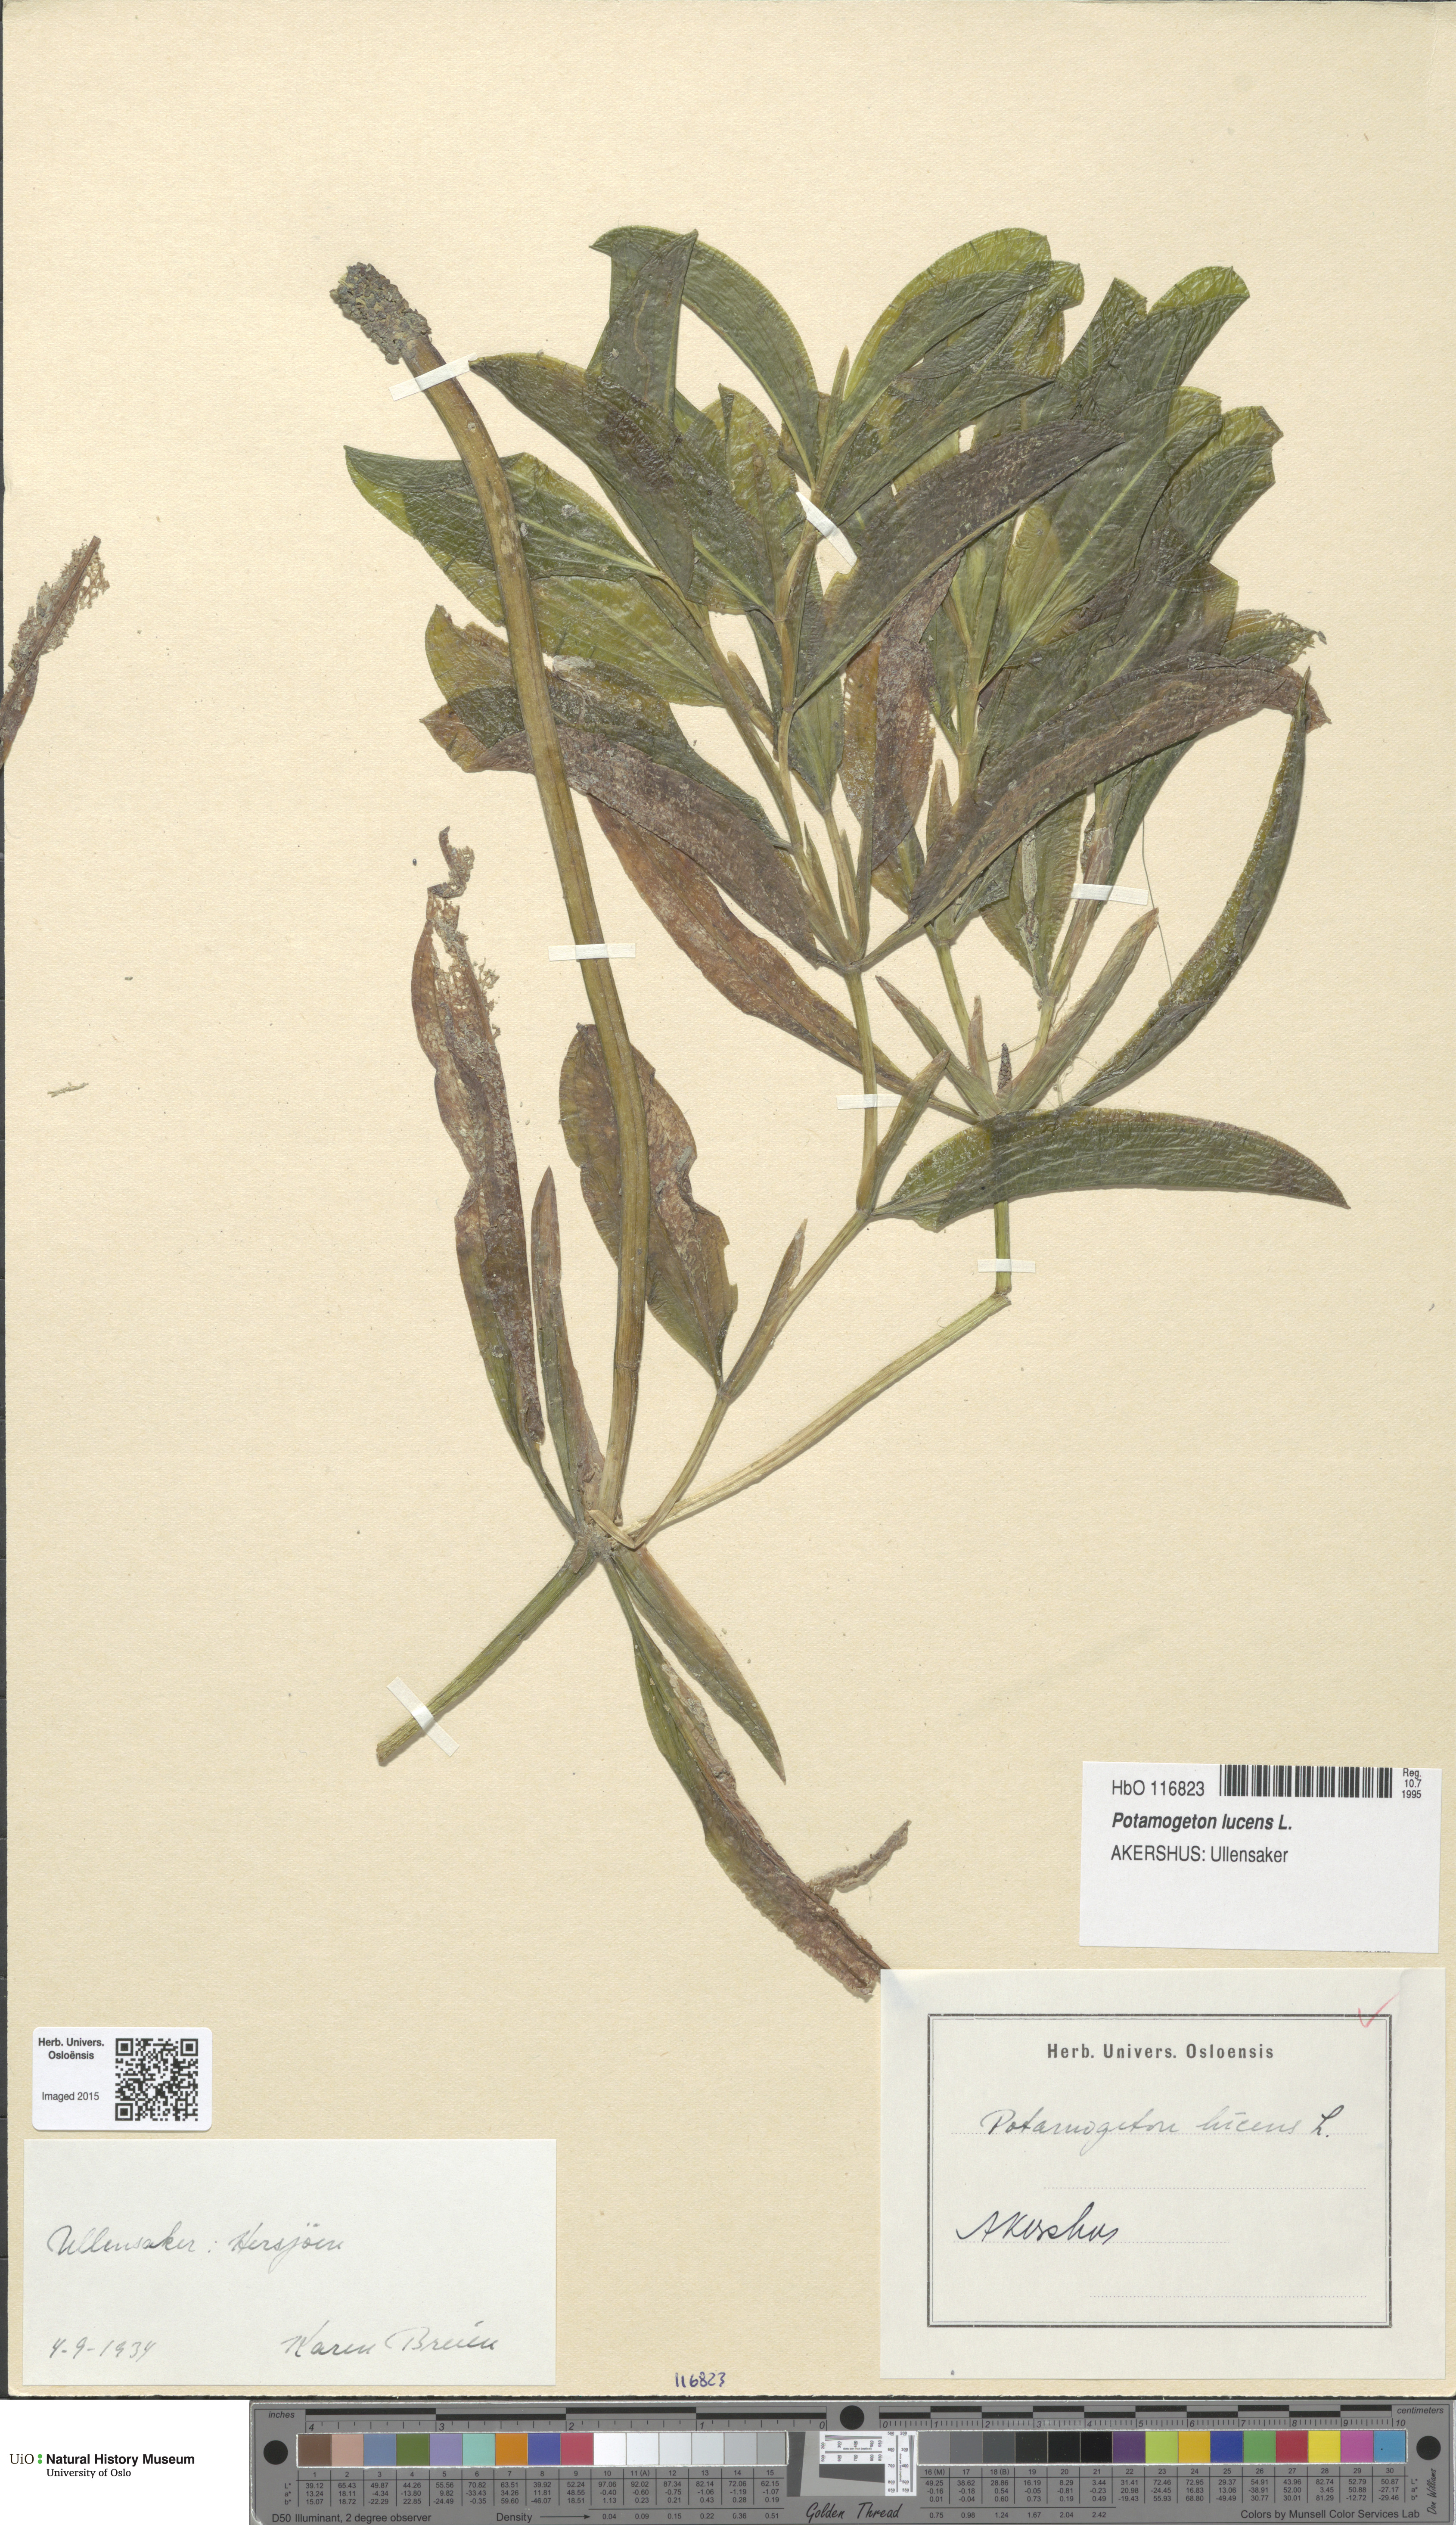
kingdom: Plantae
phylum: Tracheophyta
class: Liliopsida
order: Alismatales
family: Potamogetonaceae
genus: Potamogeton
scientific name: Potamogeton lucens
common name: Shining pondweed
